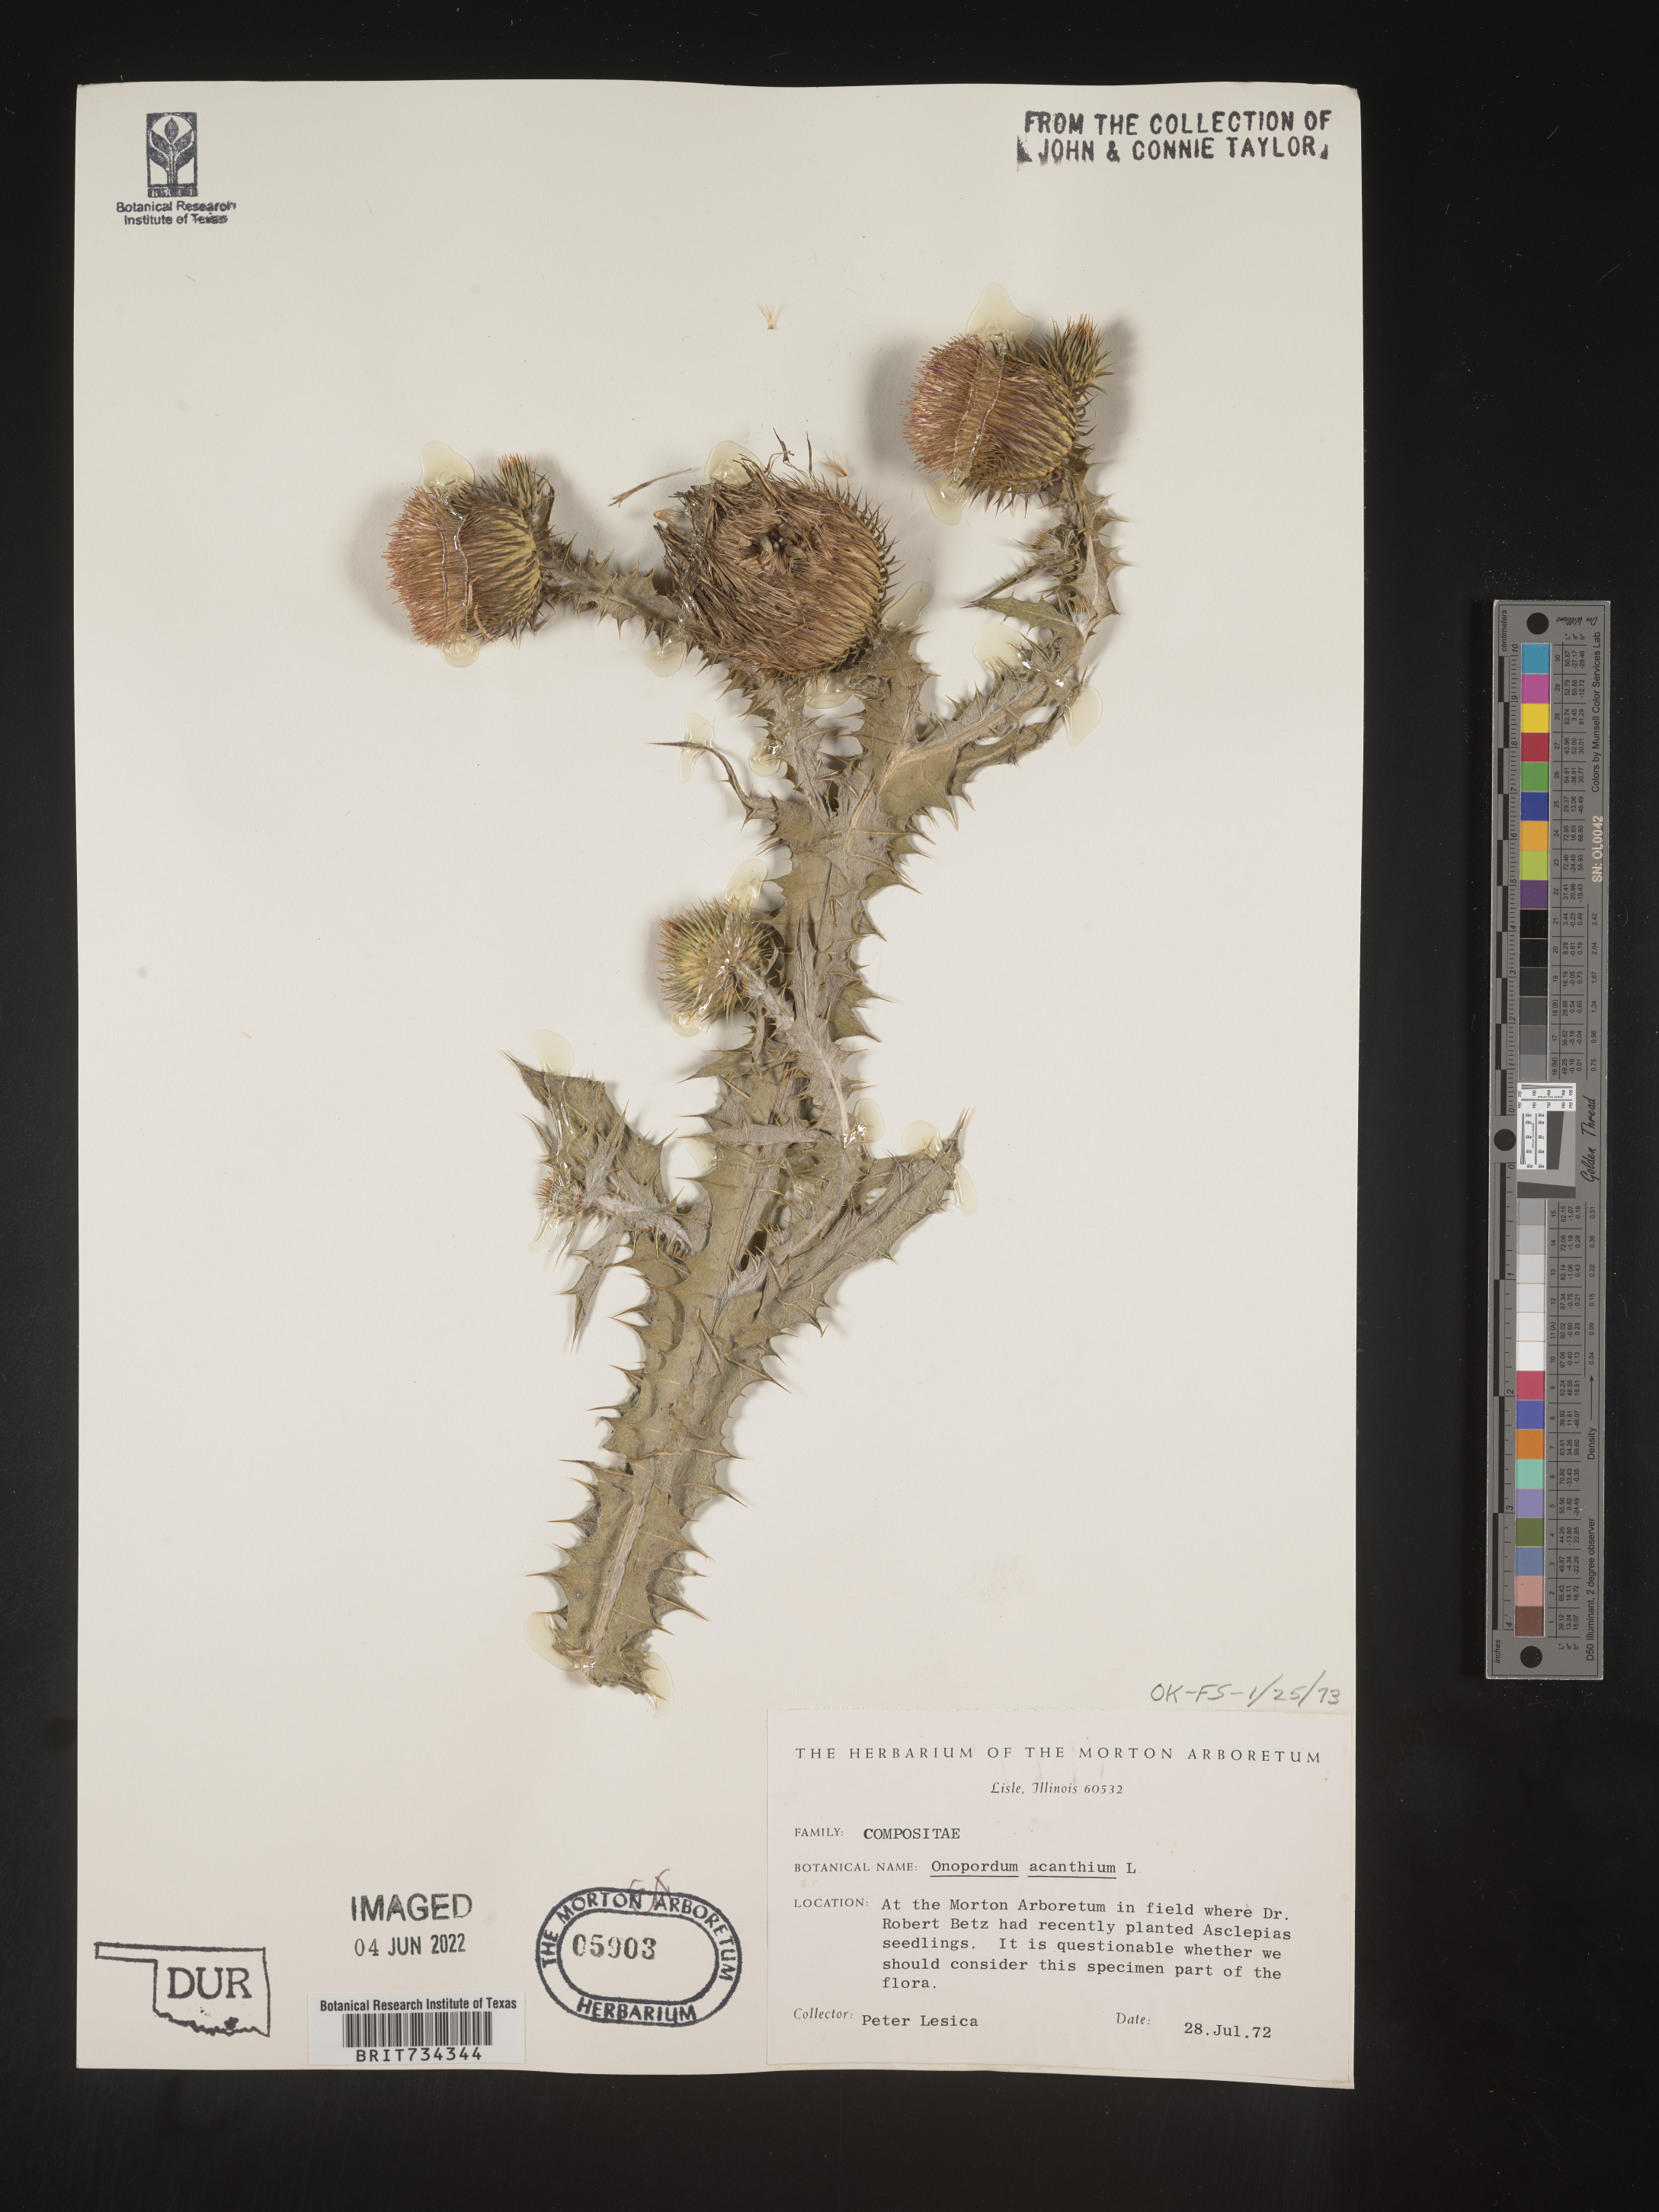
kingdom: Plantae
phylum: Tracheophyta
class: Magnoliopsida
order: Asterales
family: Asteraceae
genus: Onopordum
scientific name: Onopordum acanthium
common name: Scotch thistle
